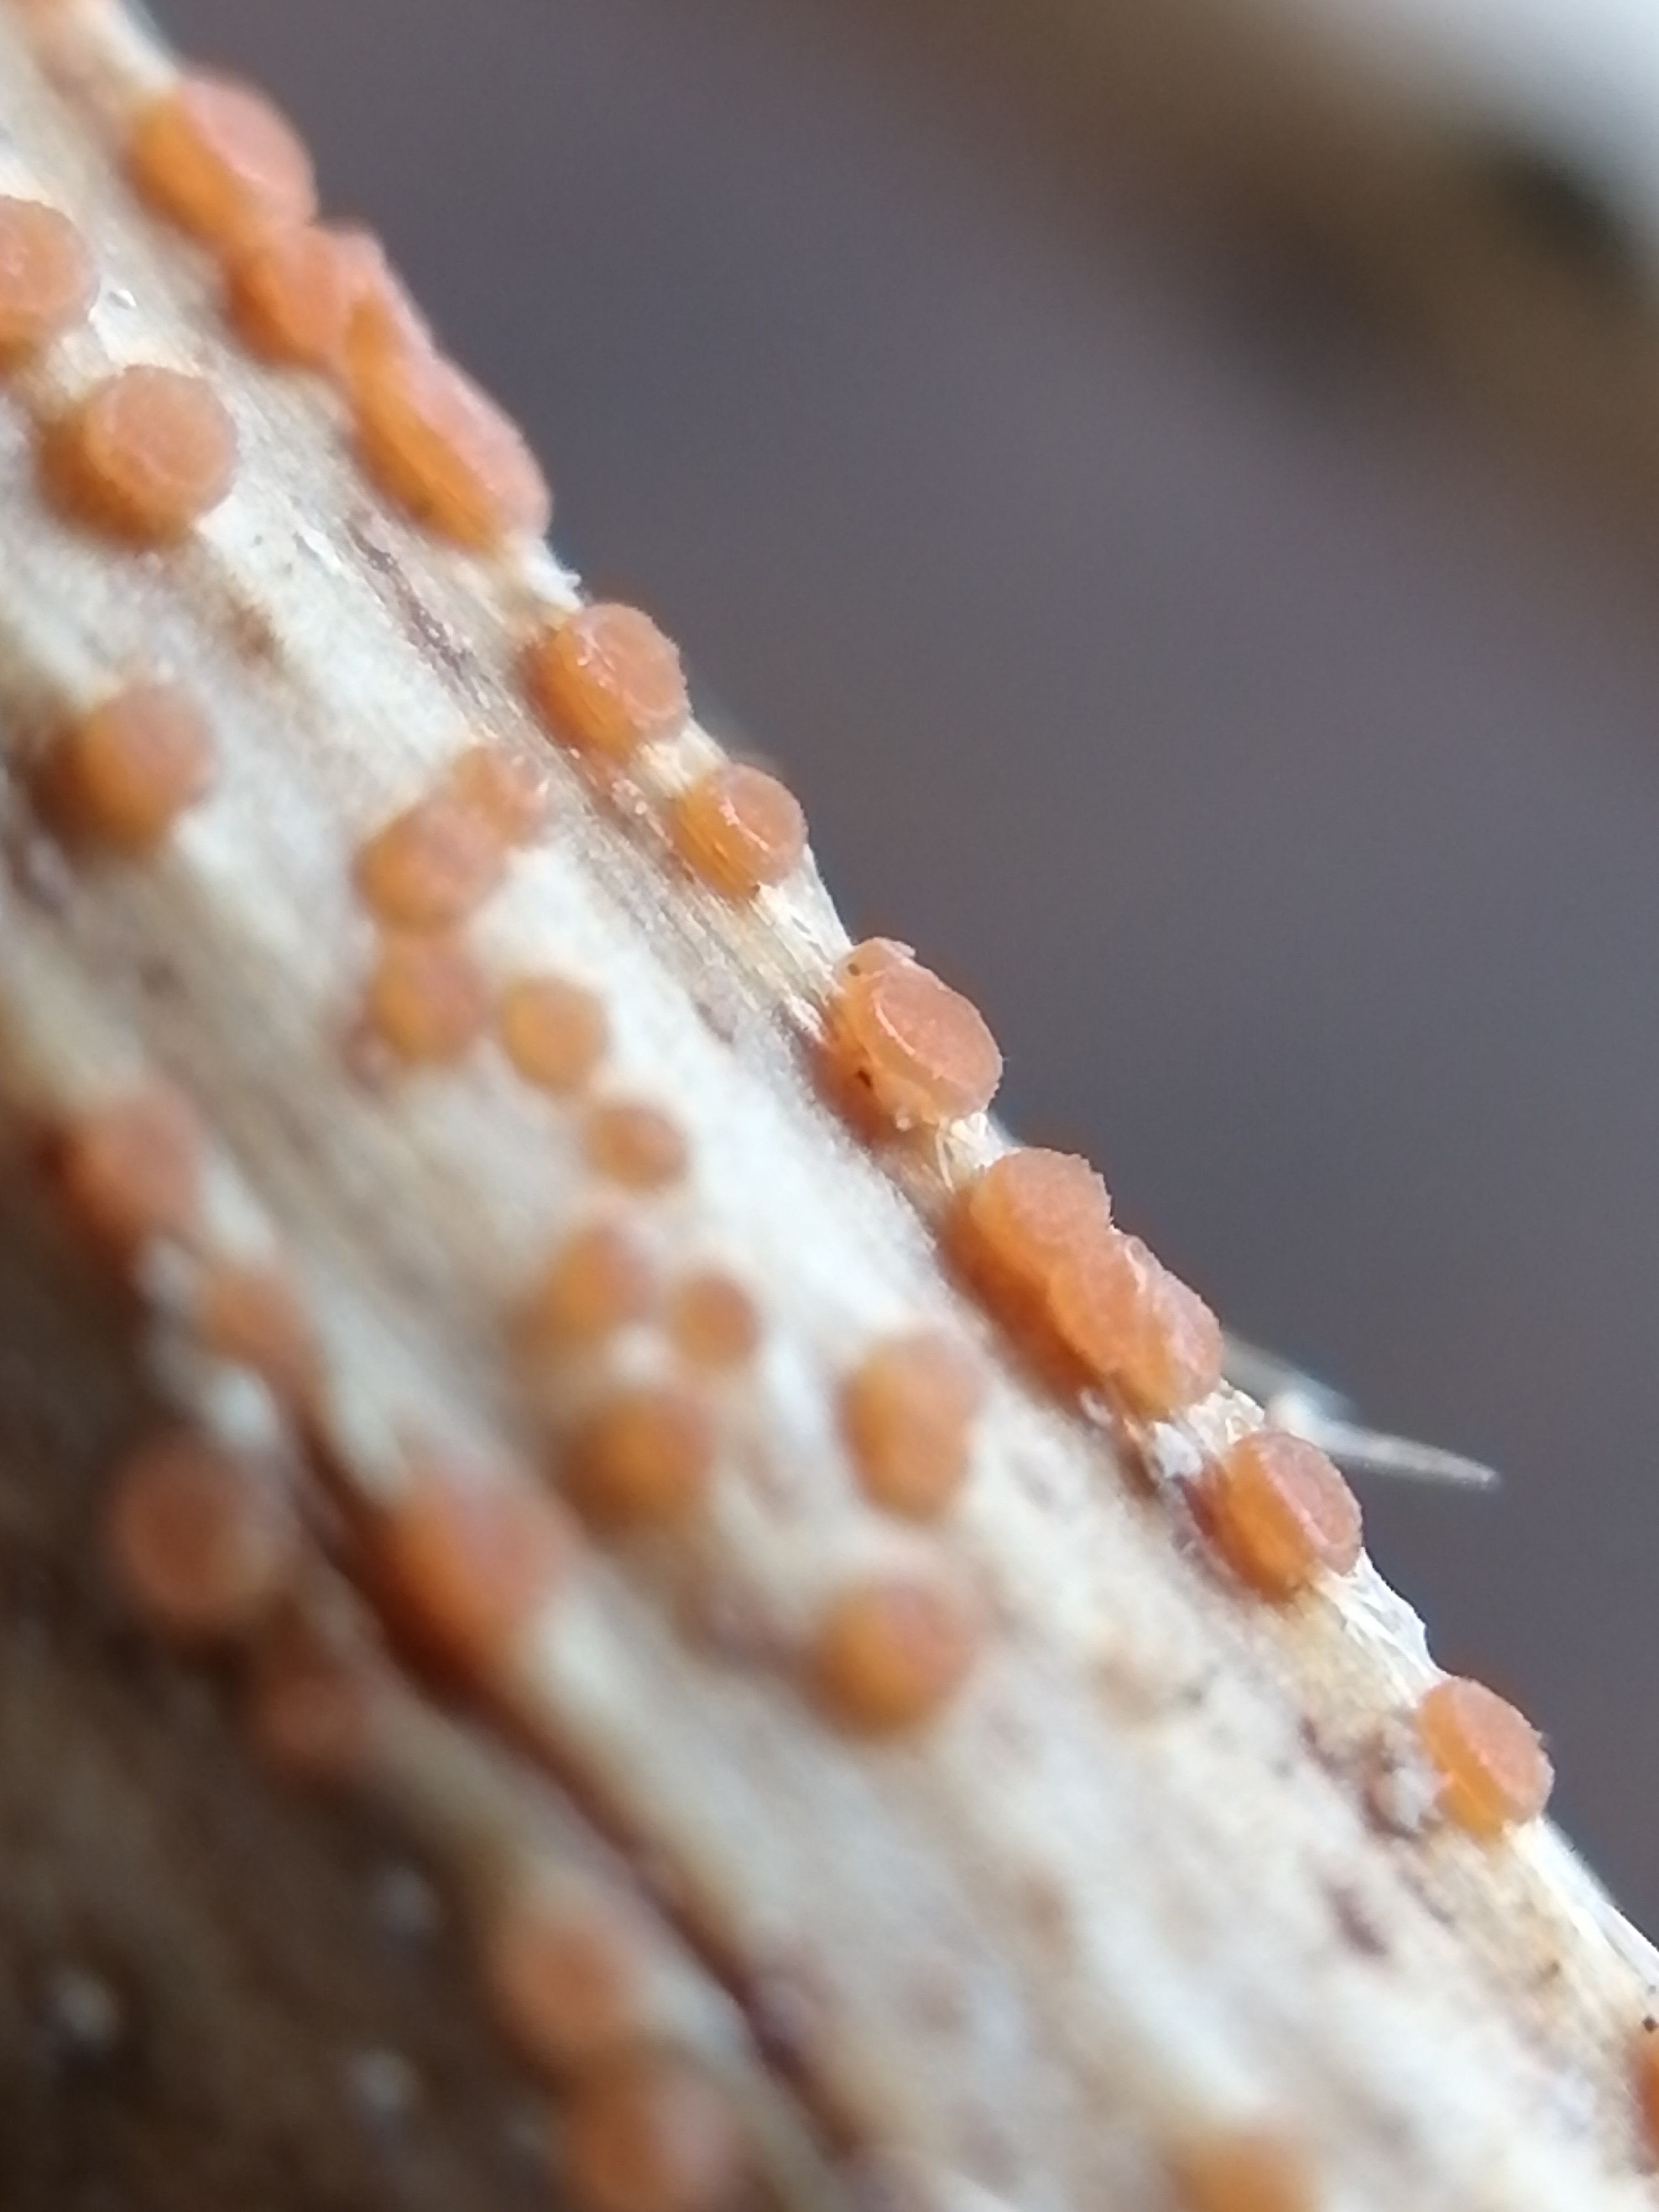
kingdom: Fungi
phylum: Ascomycota
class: Leotiomycetes
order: Helotiales
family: Calloriaceae
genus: Calloria
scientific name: Calloria urticae
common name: nælde-orangeskive
